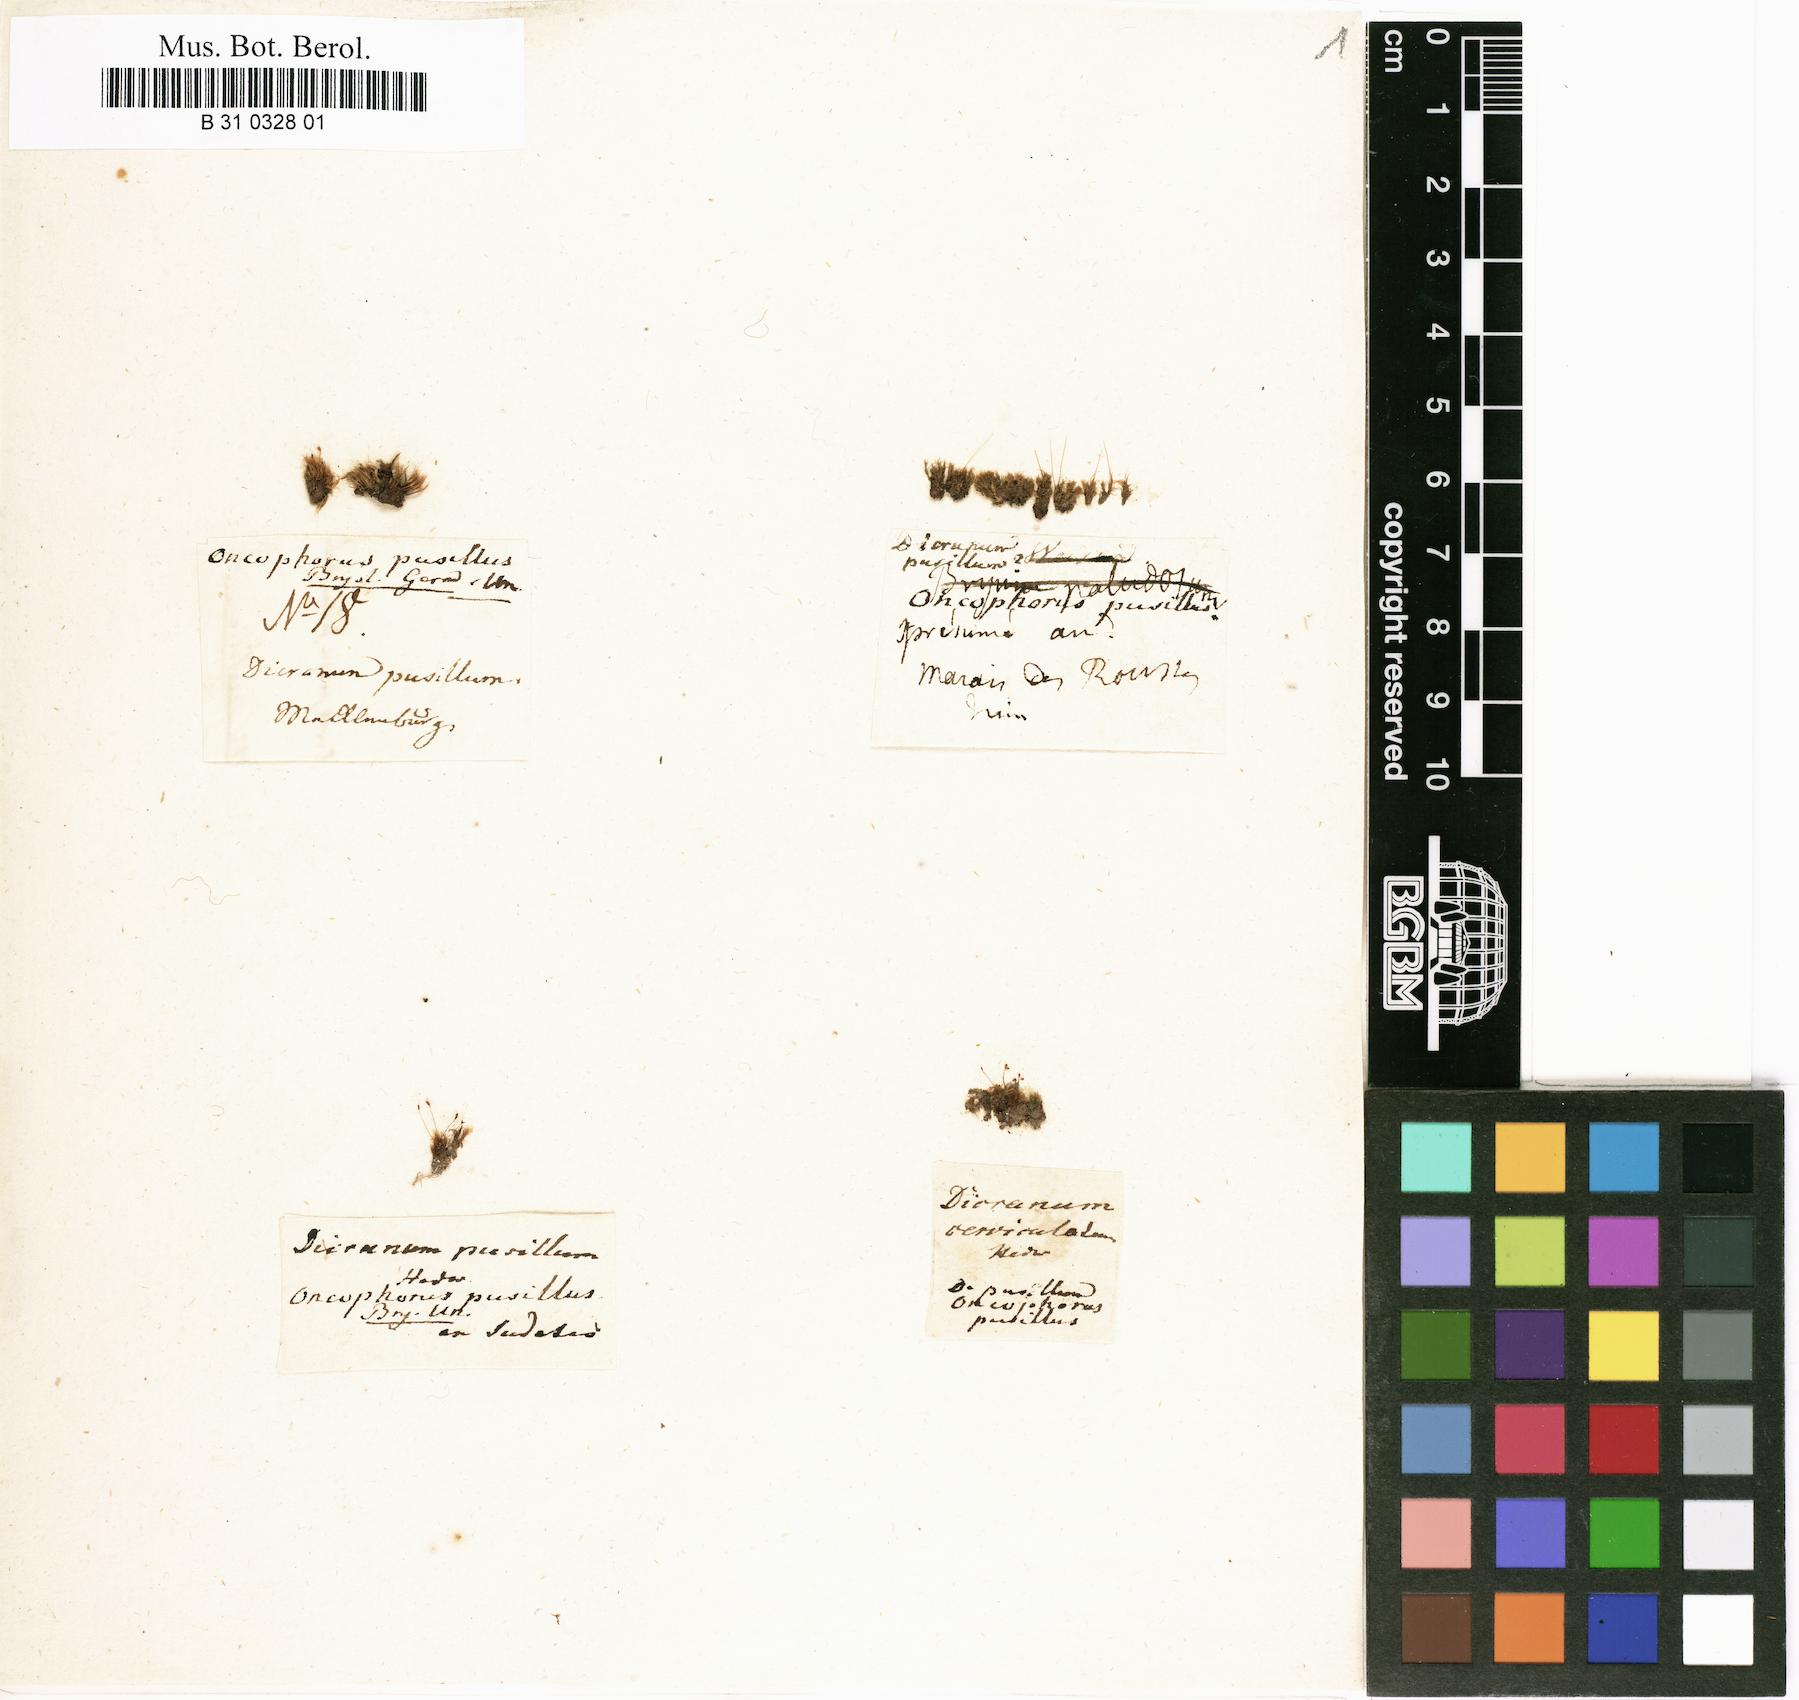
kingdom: Plantae
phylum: Bryophyta
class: Bryopsida
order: Dicranales
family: Dicranellaceae
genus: Dicranella
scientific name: Dicranella cerviculata
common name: Spur-necked forklet moss
